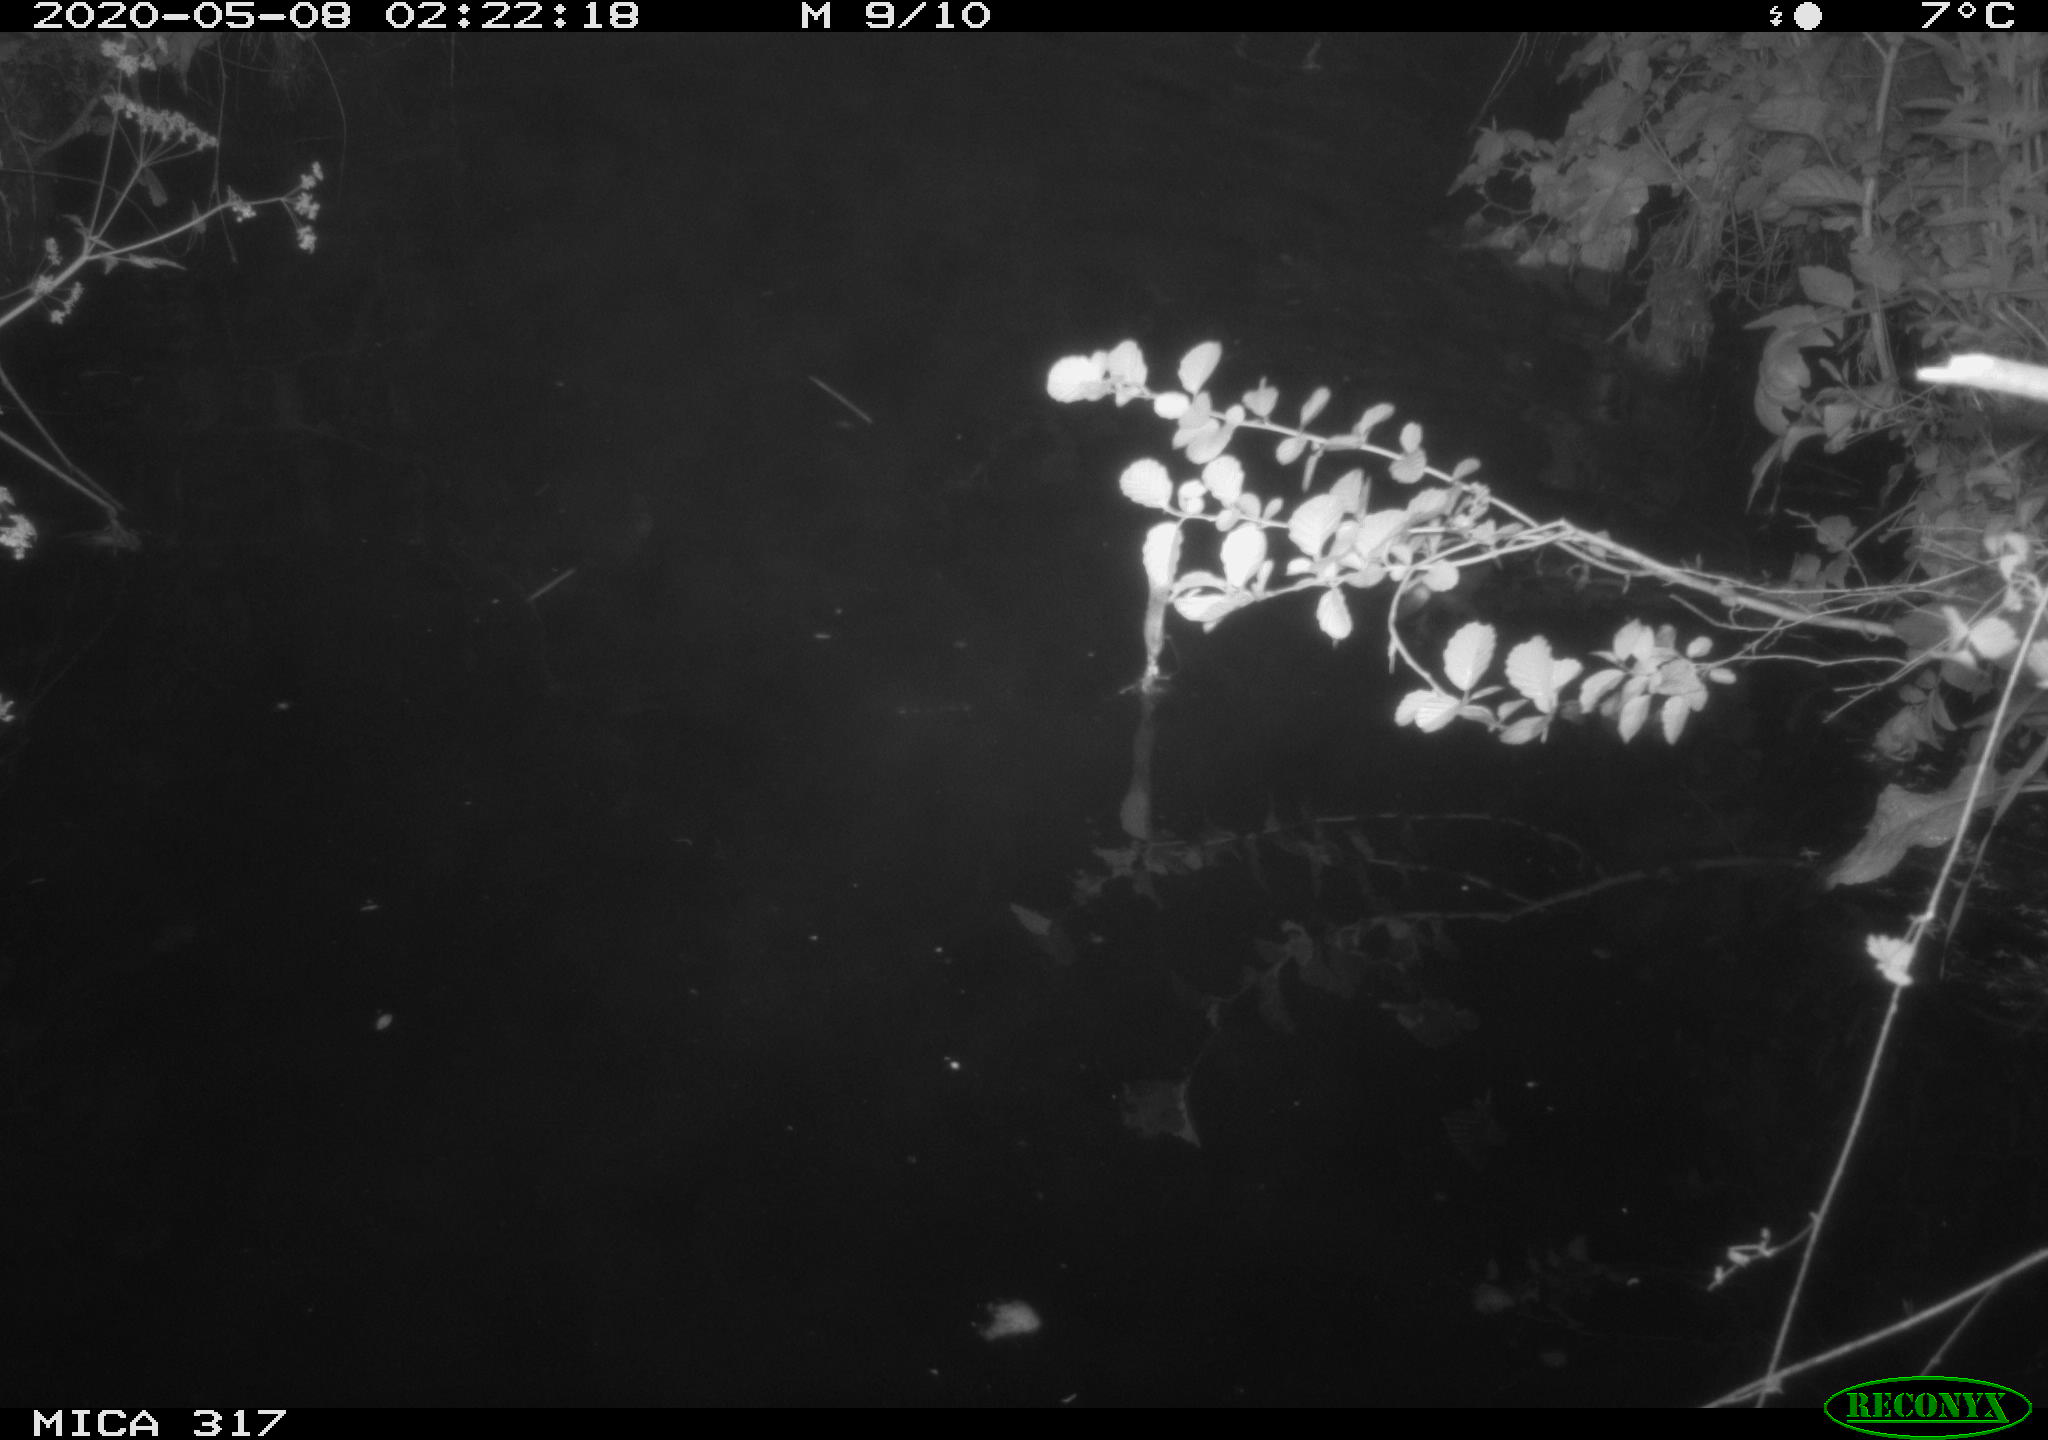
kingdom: Animalia
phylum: Chordata
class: Aves
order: Anseriformes
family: Anatidae
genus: Anas
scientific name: Anas platyrhynchos
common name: Mallard
